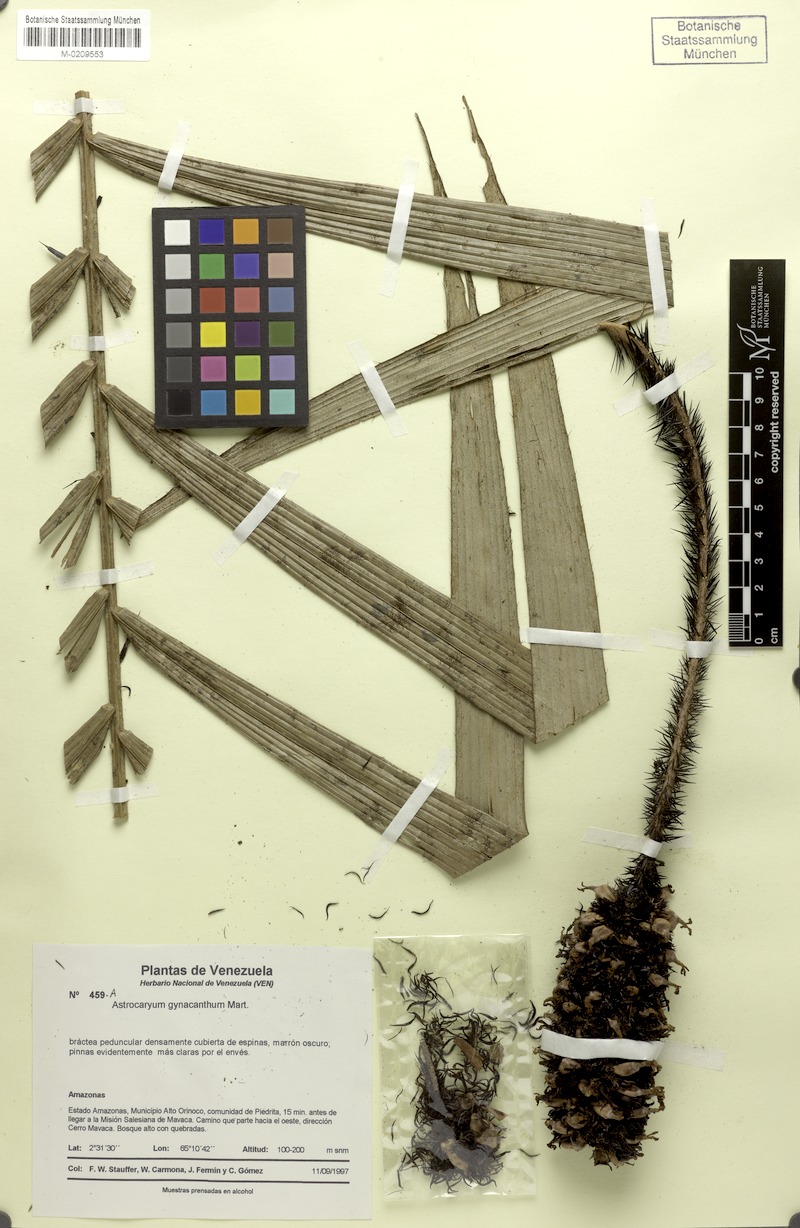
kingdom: Plantae
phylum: Tracheophyta
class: Liliopsida
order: Arecales
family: Arecaceae
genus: Astrocaryum
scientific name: Astrocaryum aculeatum
